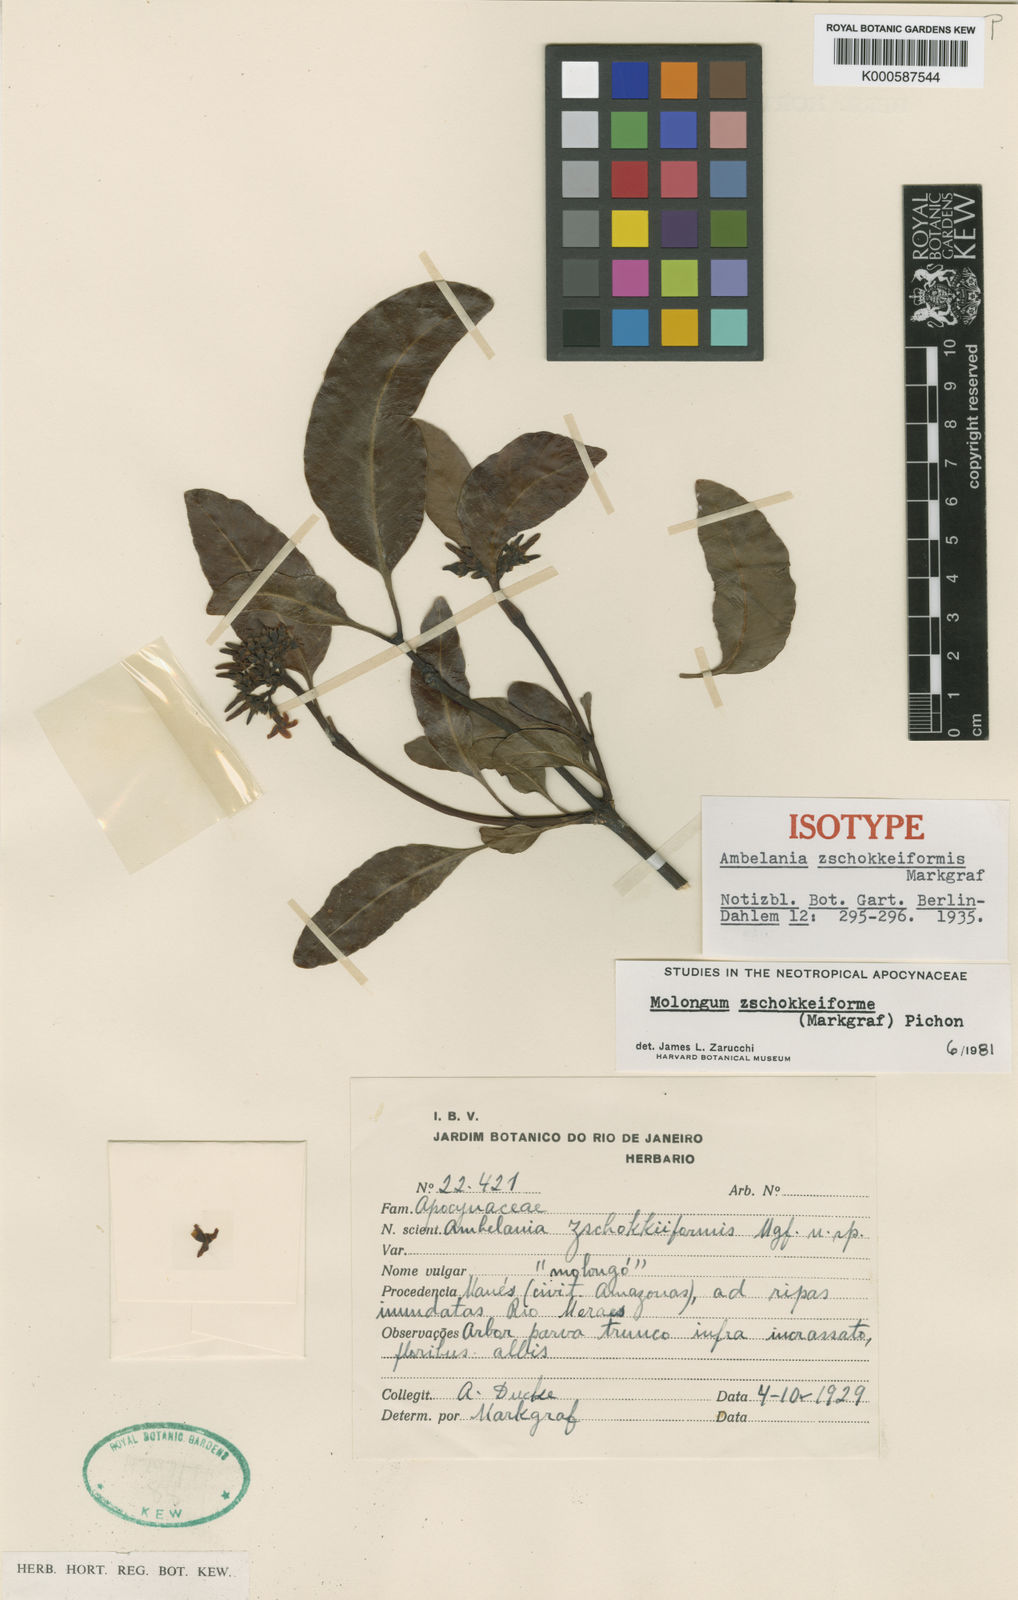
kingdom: Plantae
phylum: Tracheophyta
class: Magnoliopsida
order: Gentianales
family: Apocynaceae
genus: Molongum
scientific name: Molongum zschokkeiforme
